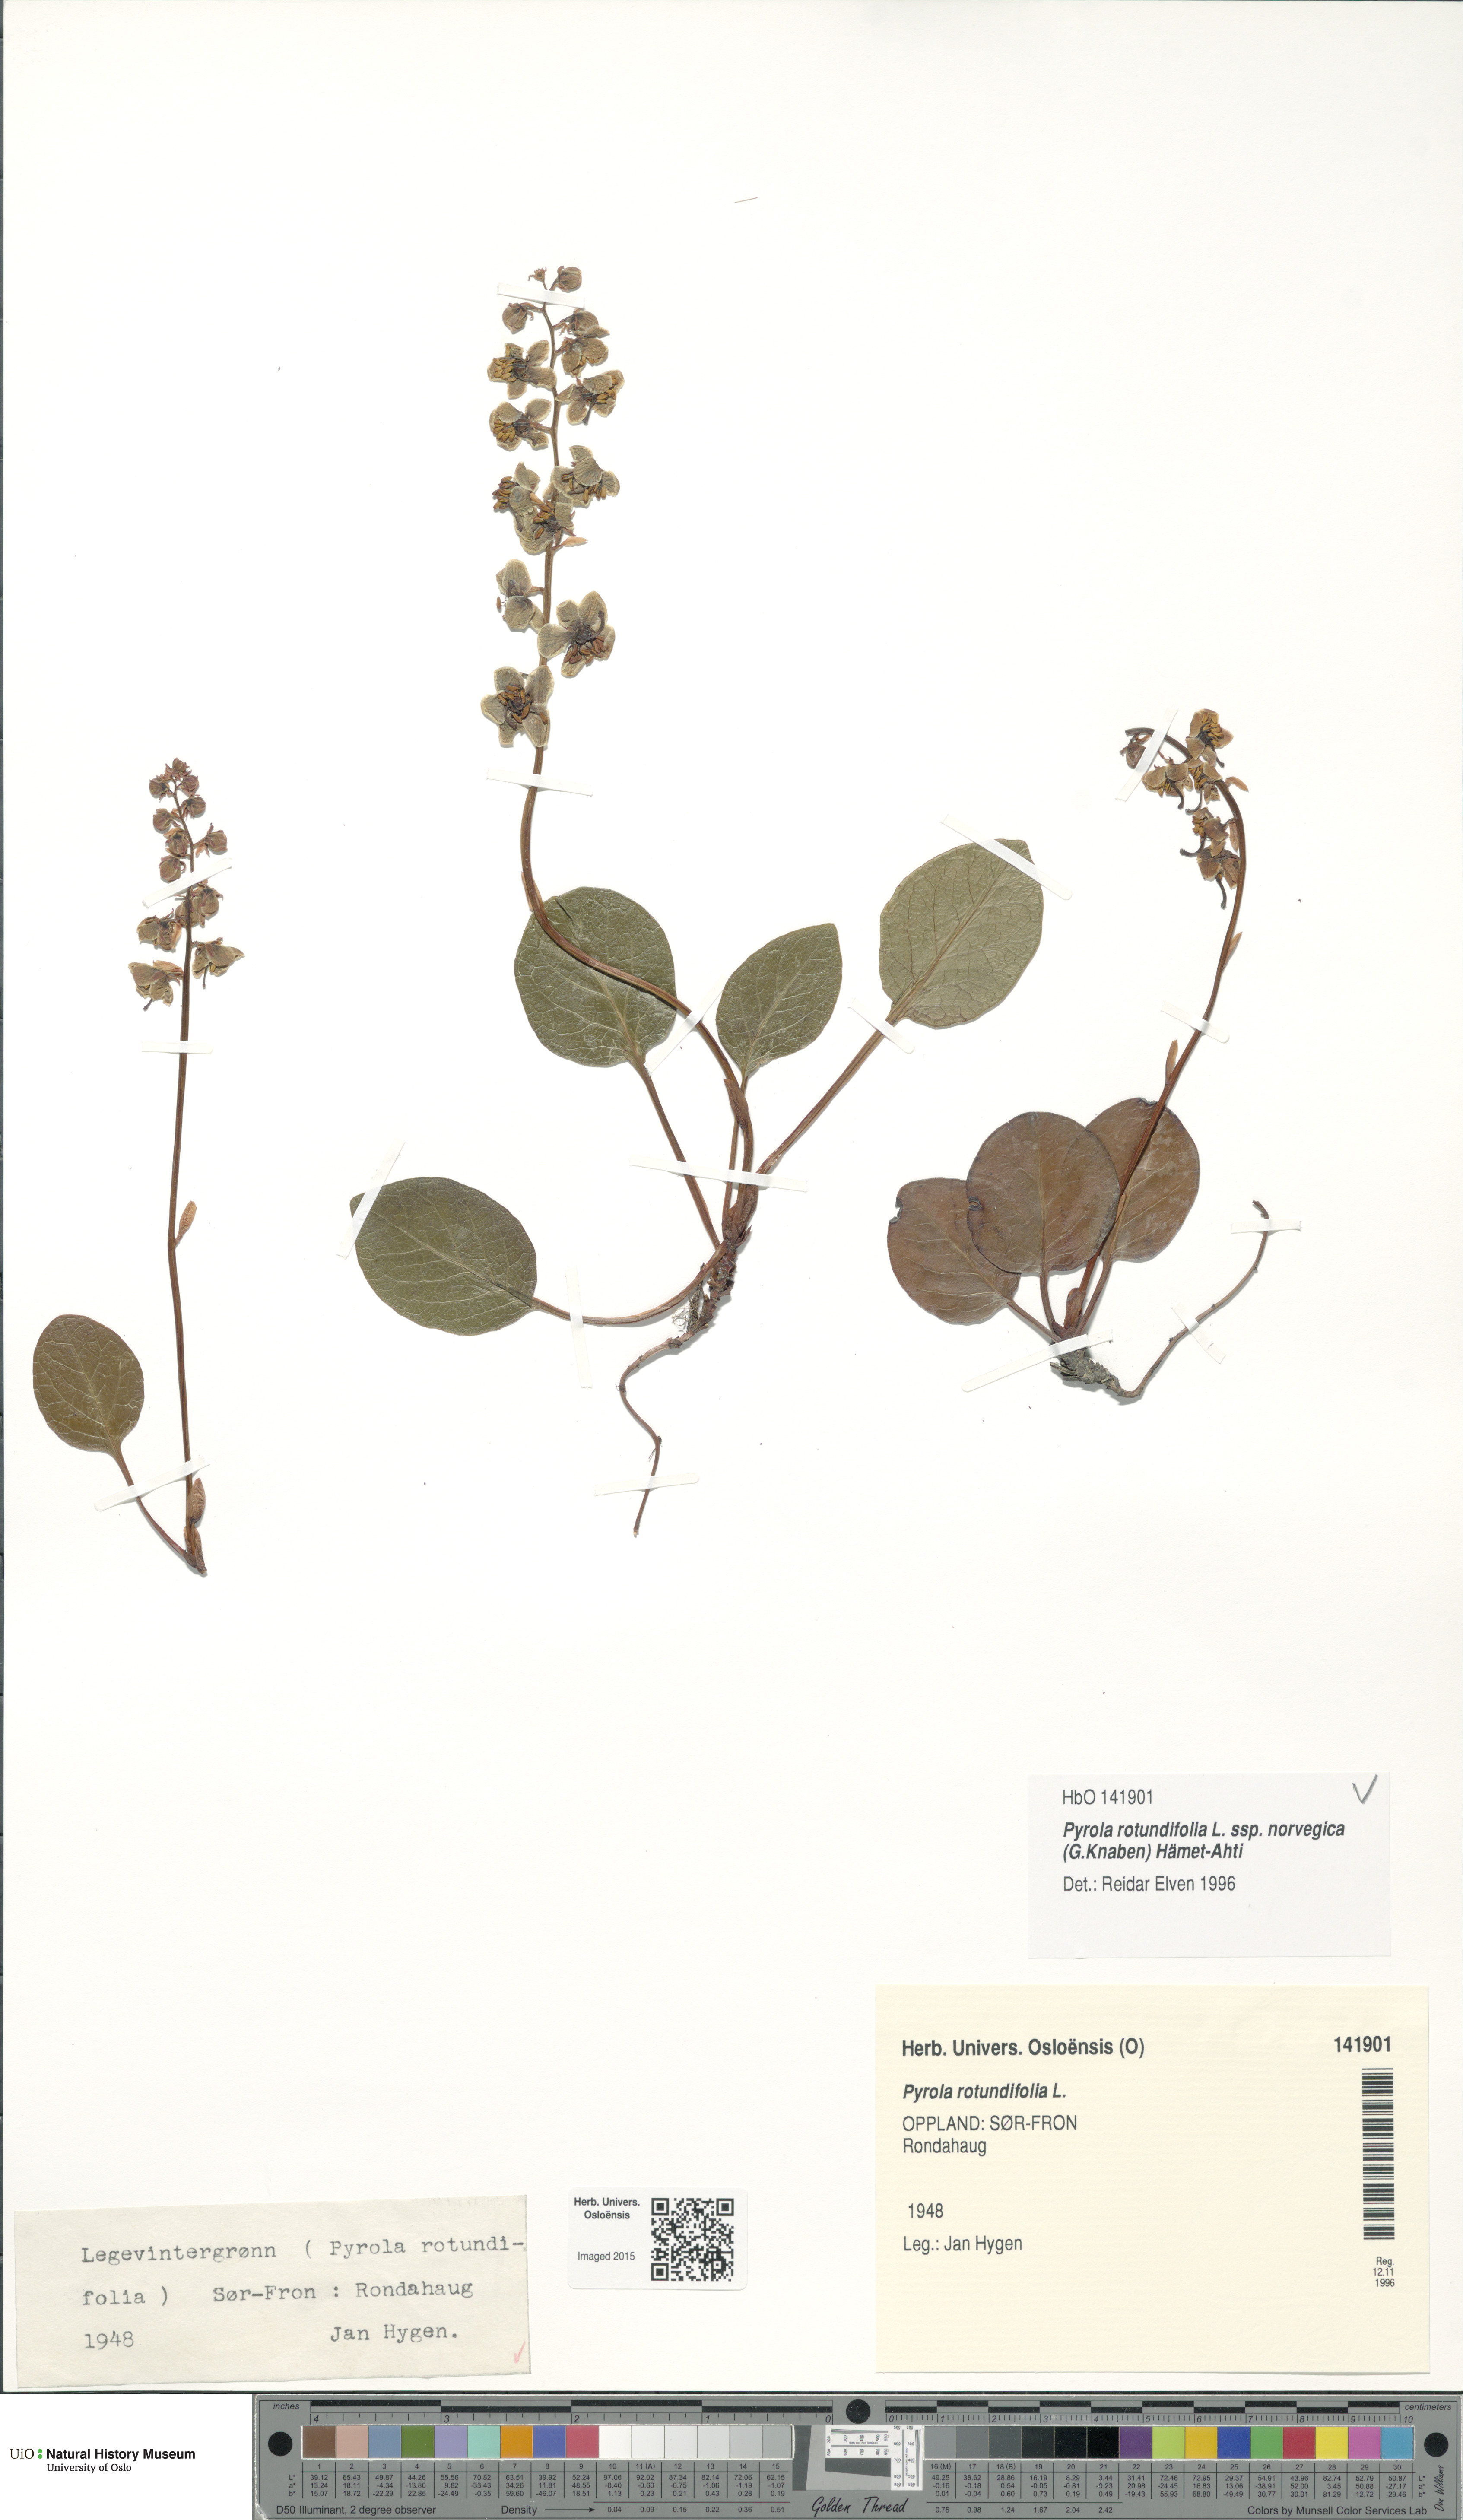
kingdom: Plantae
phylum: Tracheophyta
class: Magnoliopsida
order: Ericales
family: Ericaceae
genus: Pyrola
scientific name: Pyrola rotundifolia
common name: Round-leaved wintergreen
